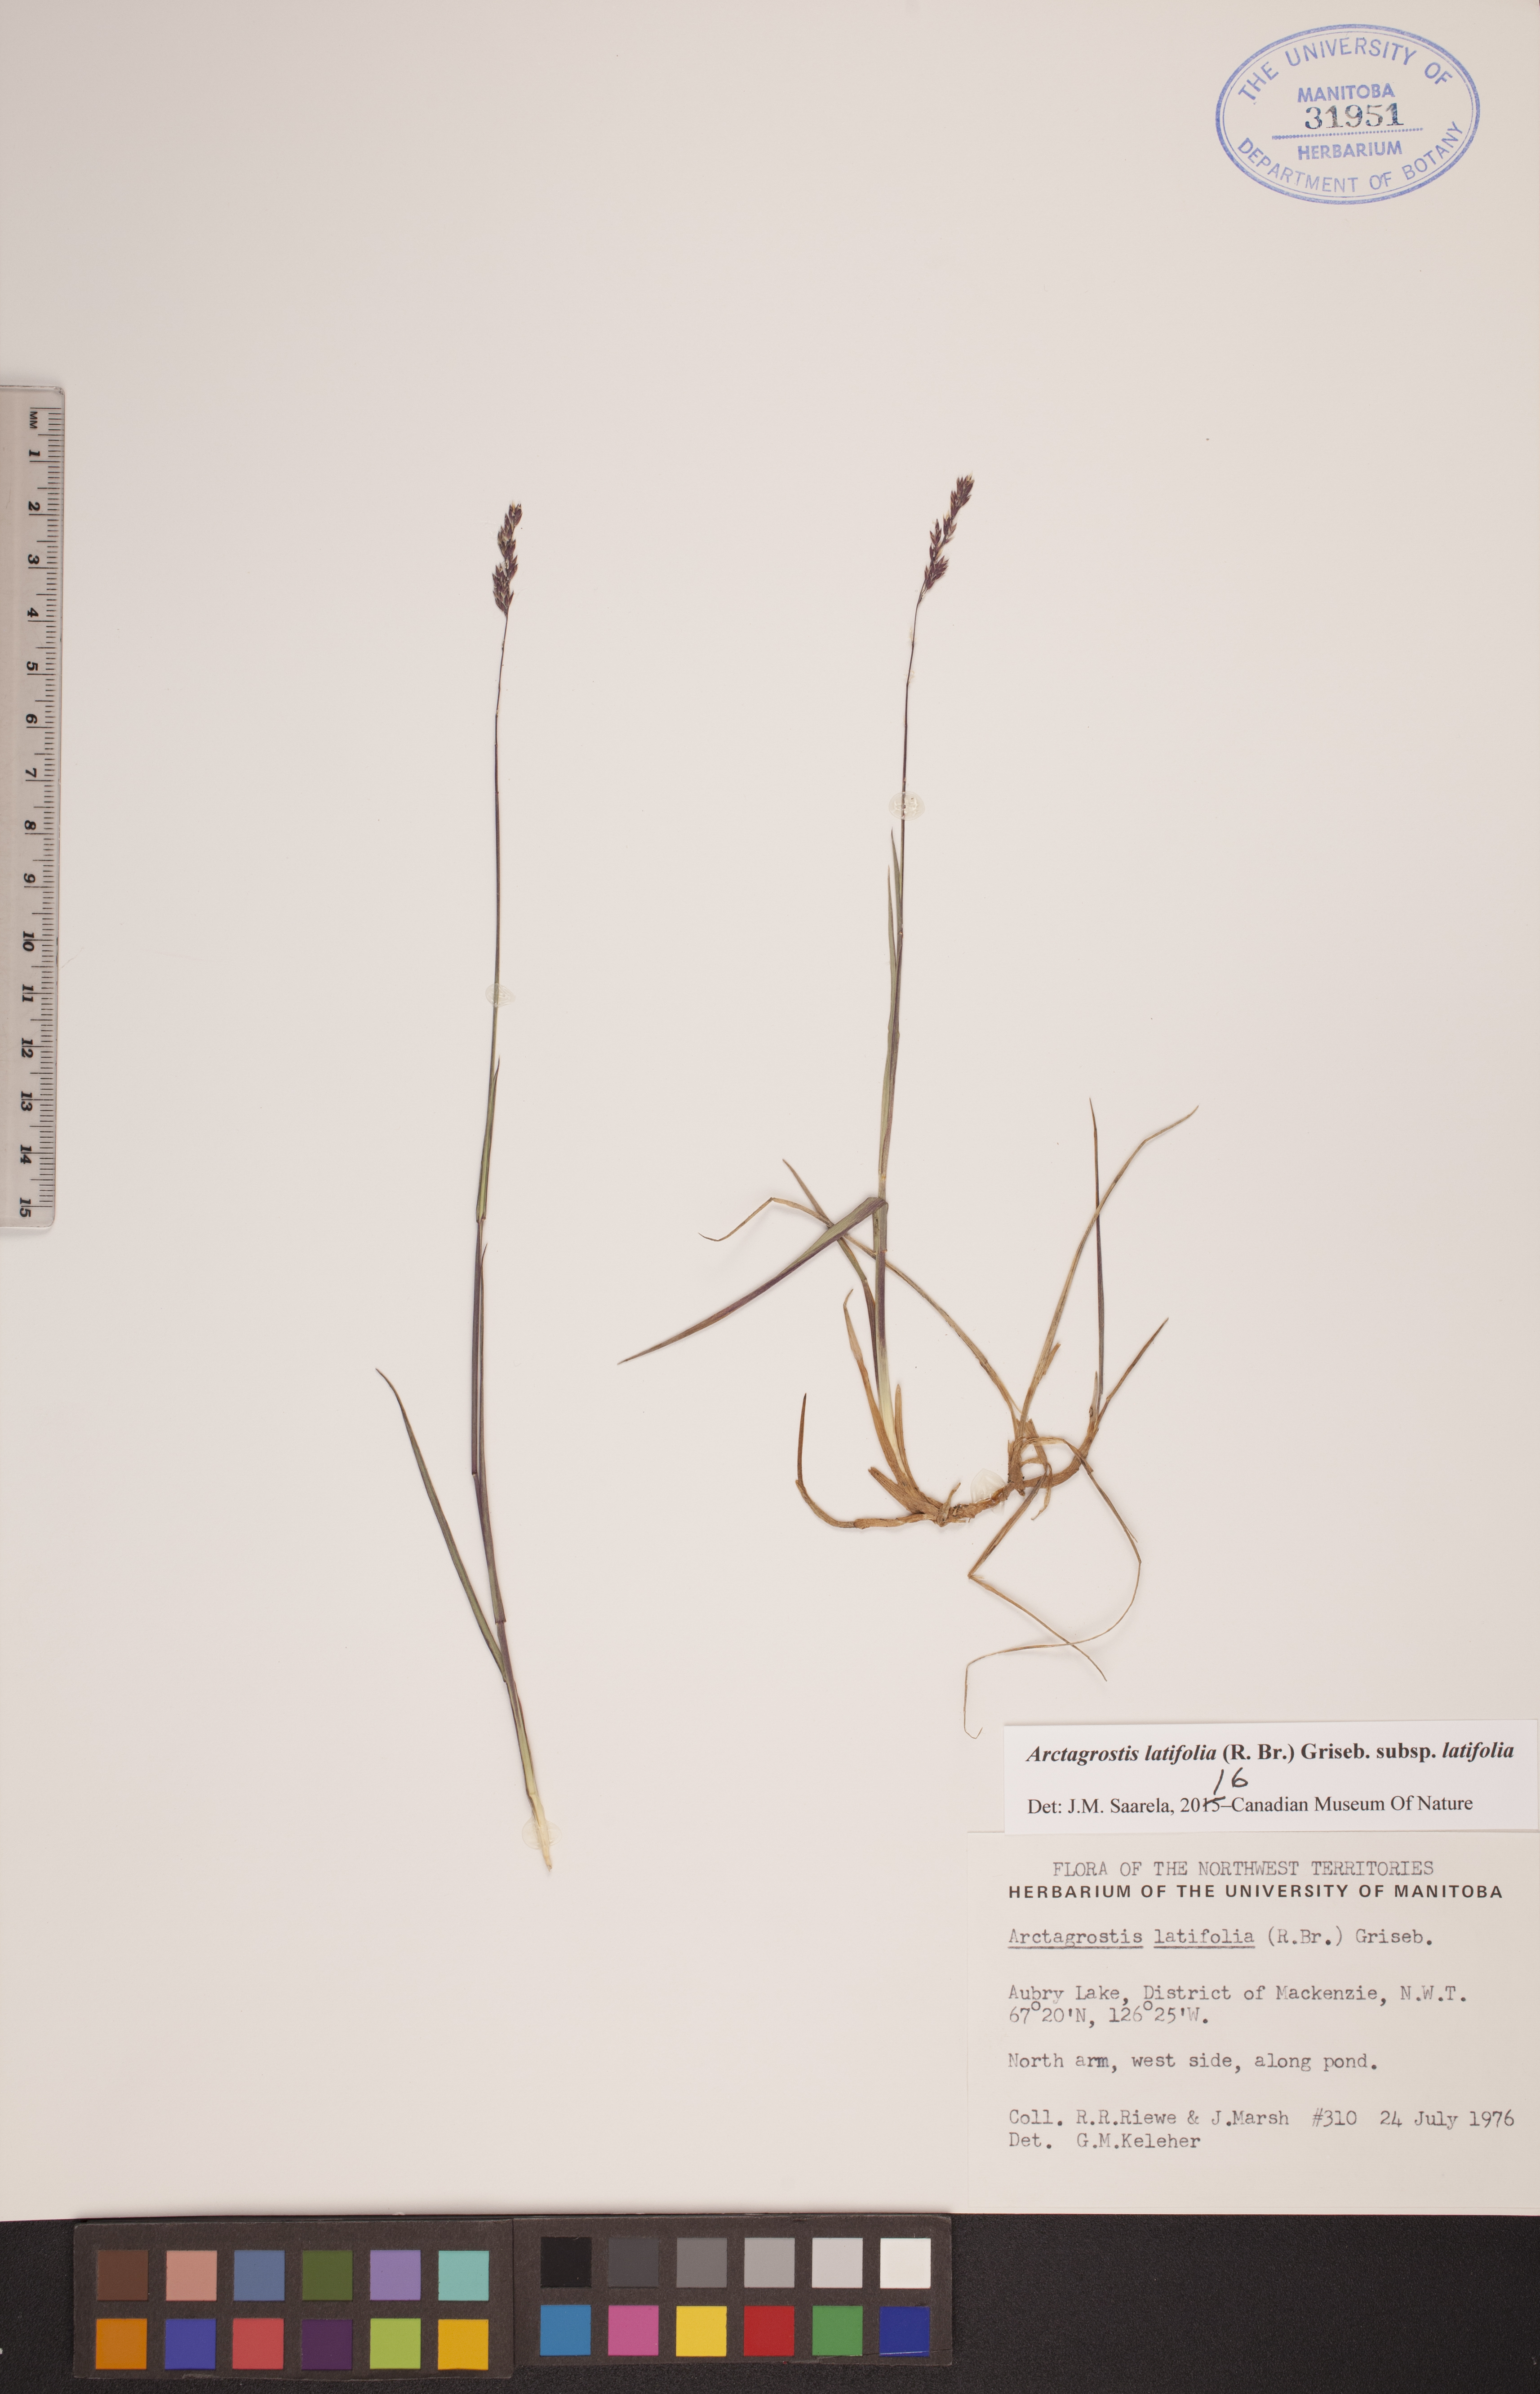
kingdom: Plantae
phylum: Tracheophyta
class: Liliopsida
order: Poales
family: Poaceae
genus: Arctagrostis
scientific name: Arctagrostis latifolia
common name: Arctic grass
